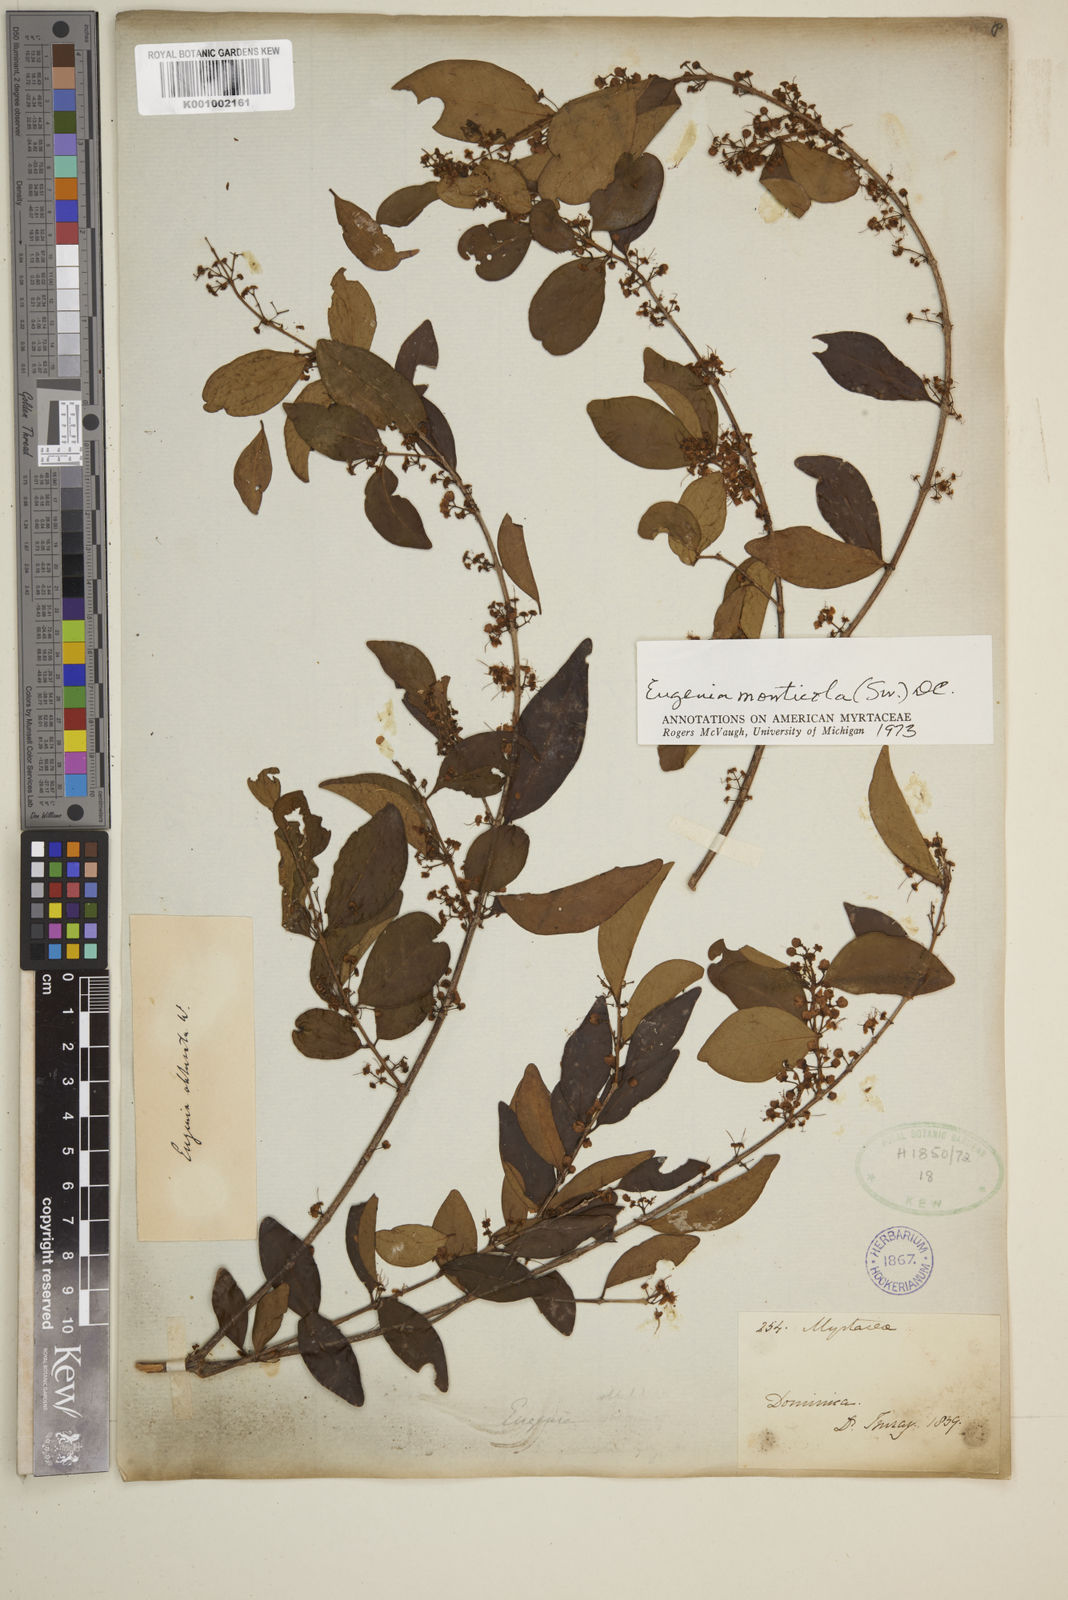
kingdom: Plantae
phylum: Tracheophyta
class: Magnoliopsida
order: Myrtales
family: Myrtaceae
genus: Eugenia
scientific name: Eugenia monticola
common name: Birds berry
